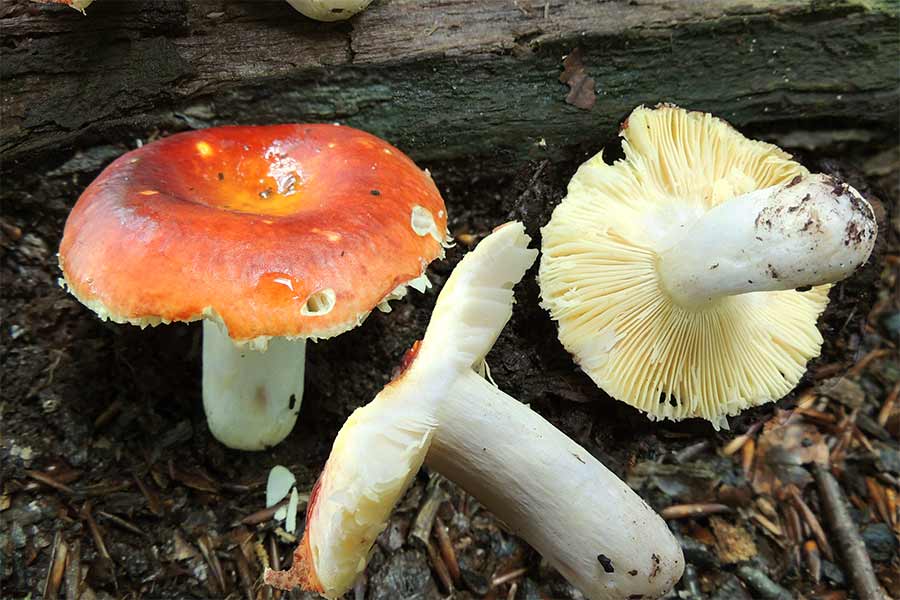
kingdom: Fungi
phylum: Basidiomycota
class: Agaricomycetes
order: Russulales
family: Russulaceae
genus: Russula
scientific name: Russula aurea
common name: gylden skørhat
